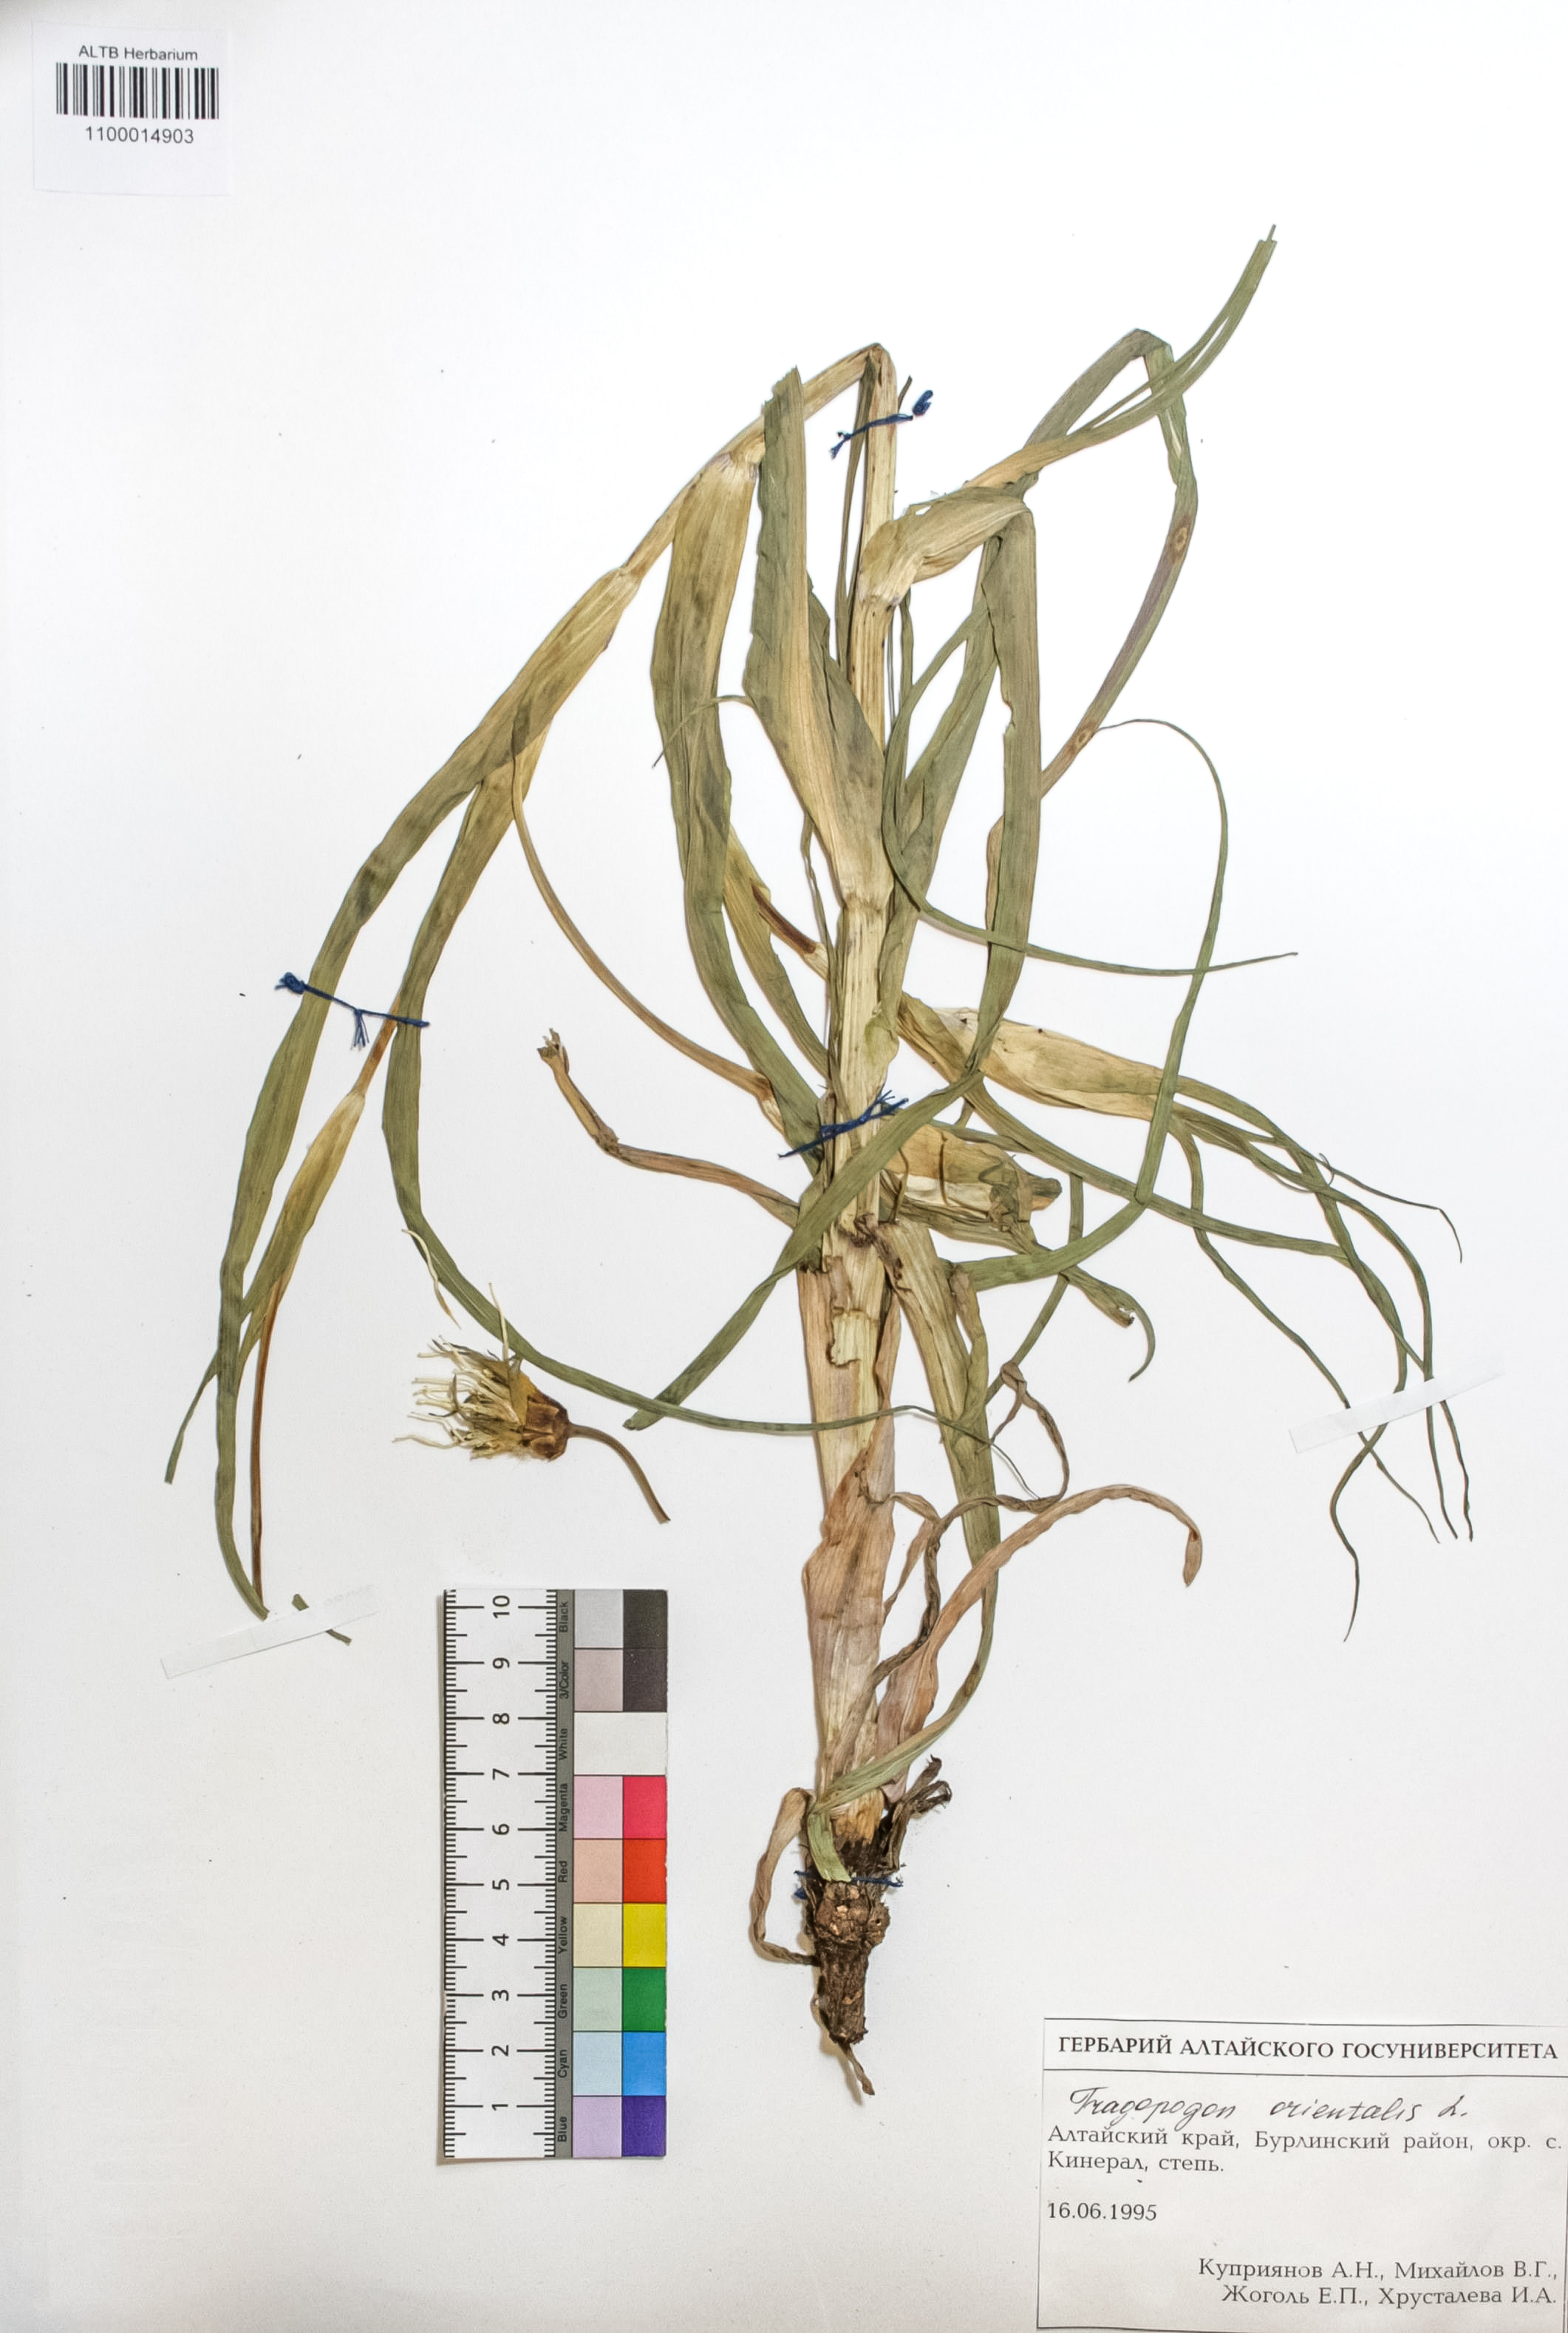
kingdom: Plantae
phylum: Tracheophyta
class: Magnoliopsida
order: Asterales
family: Asteraceae
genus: Tragopogon
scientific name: Tragopogon orientalis
